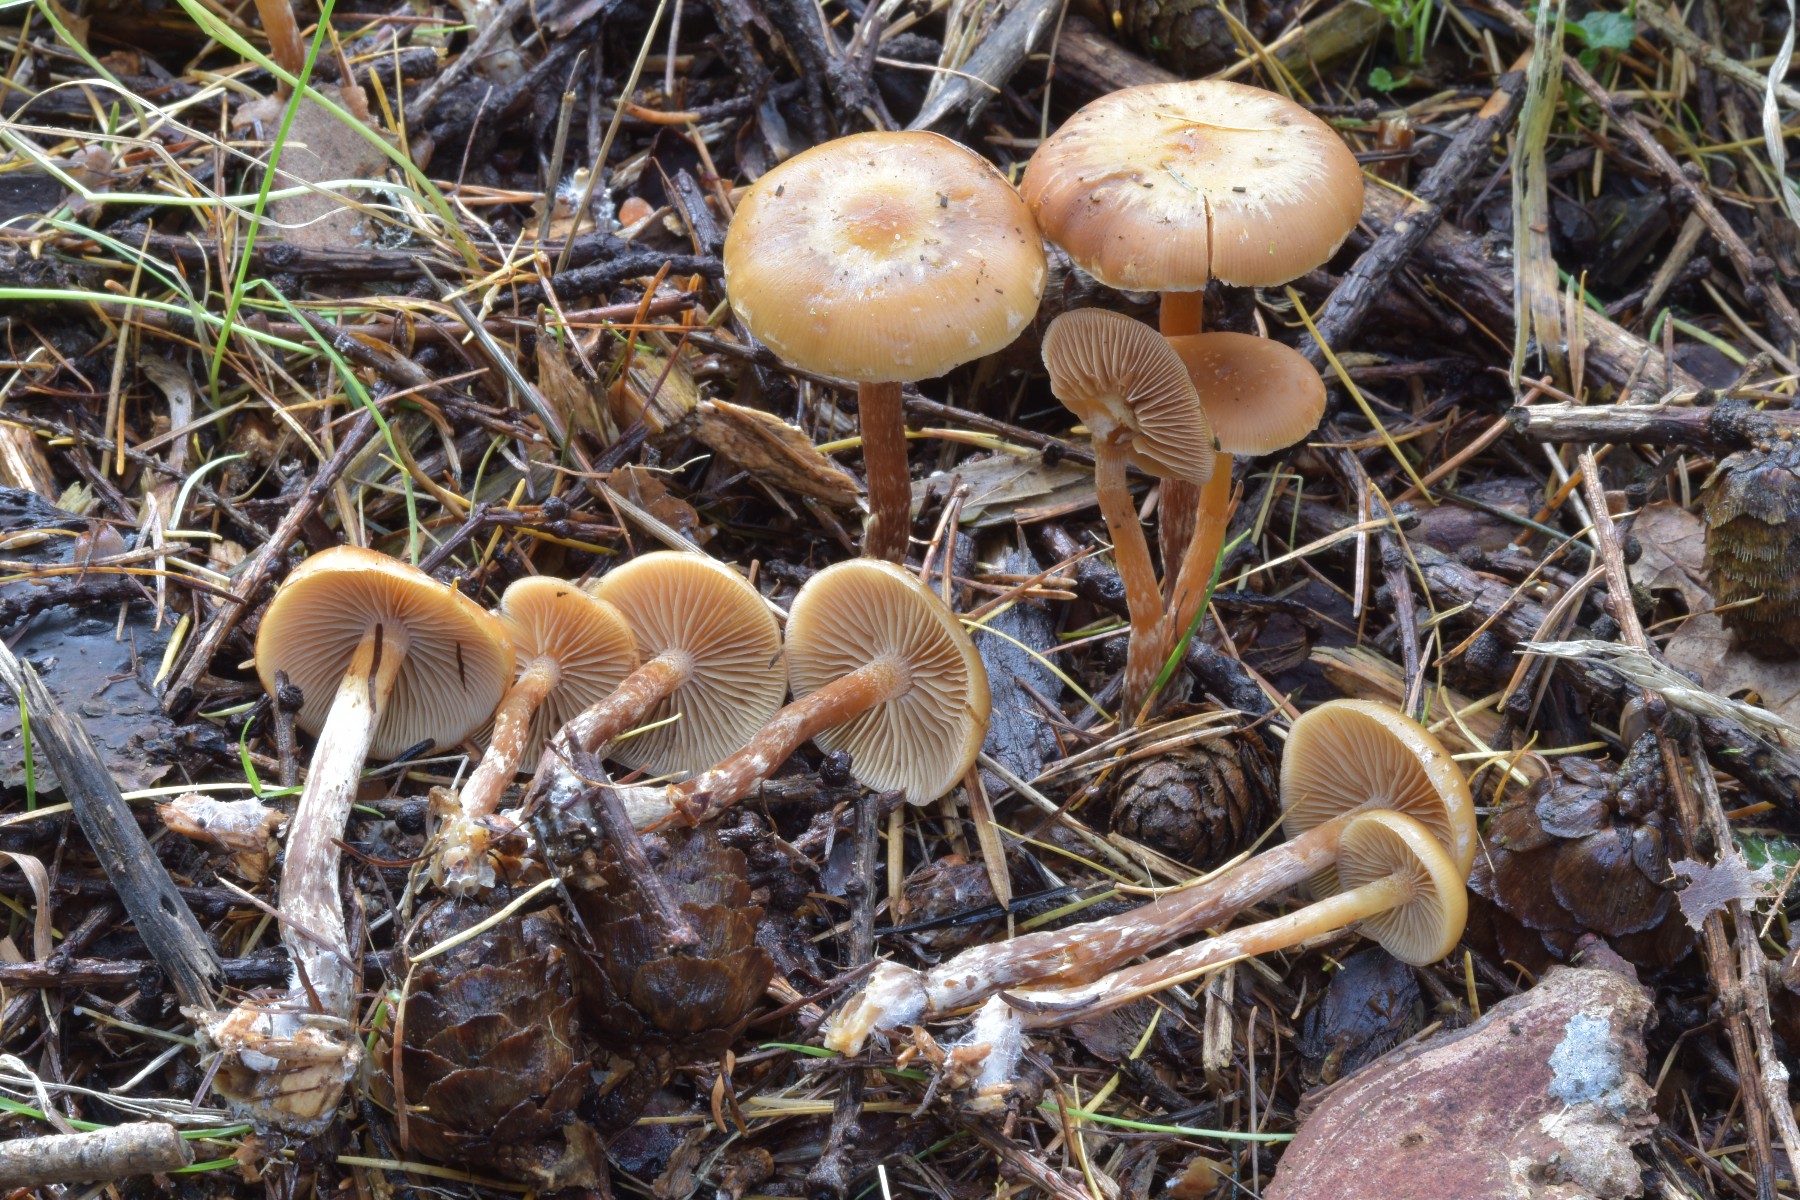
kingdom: Fungi
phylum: Basidiomycota
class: Agaricomycetes
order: Agaricales
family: Hymenogastraceae
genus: Galerina
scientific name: Galerina sideroides
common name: træflis-hjelmhat
